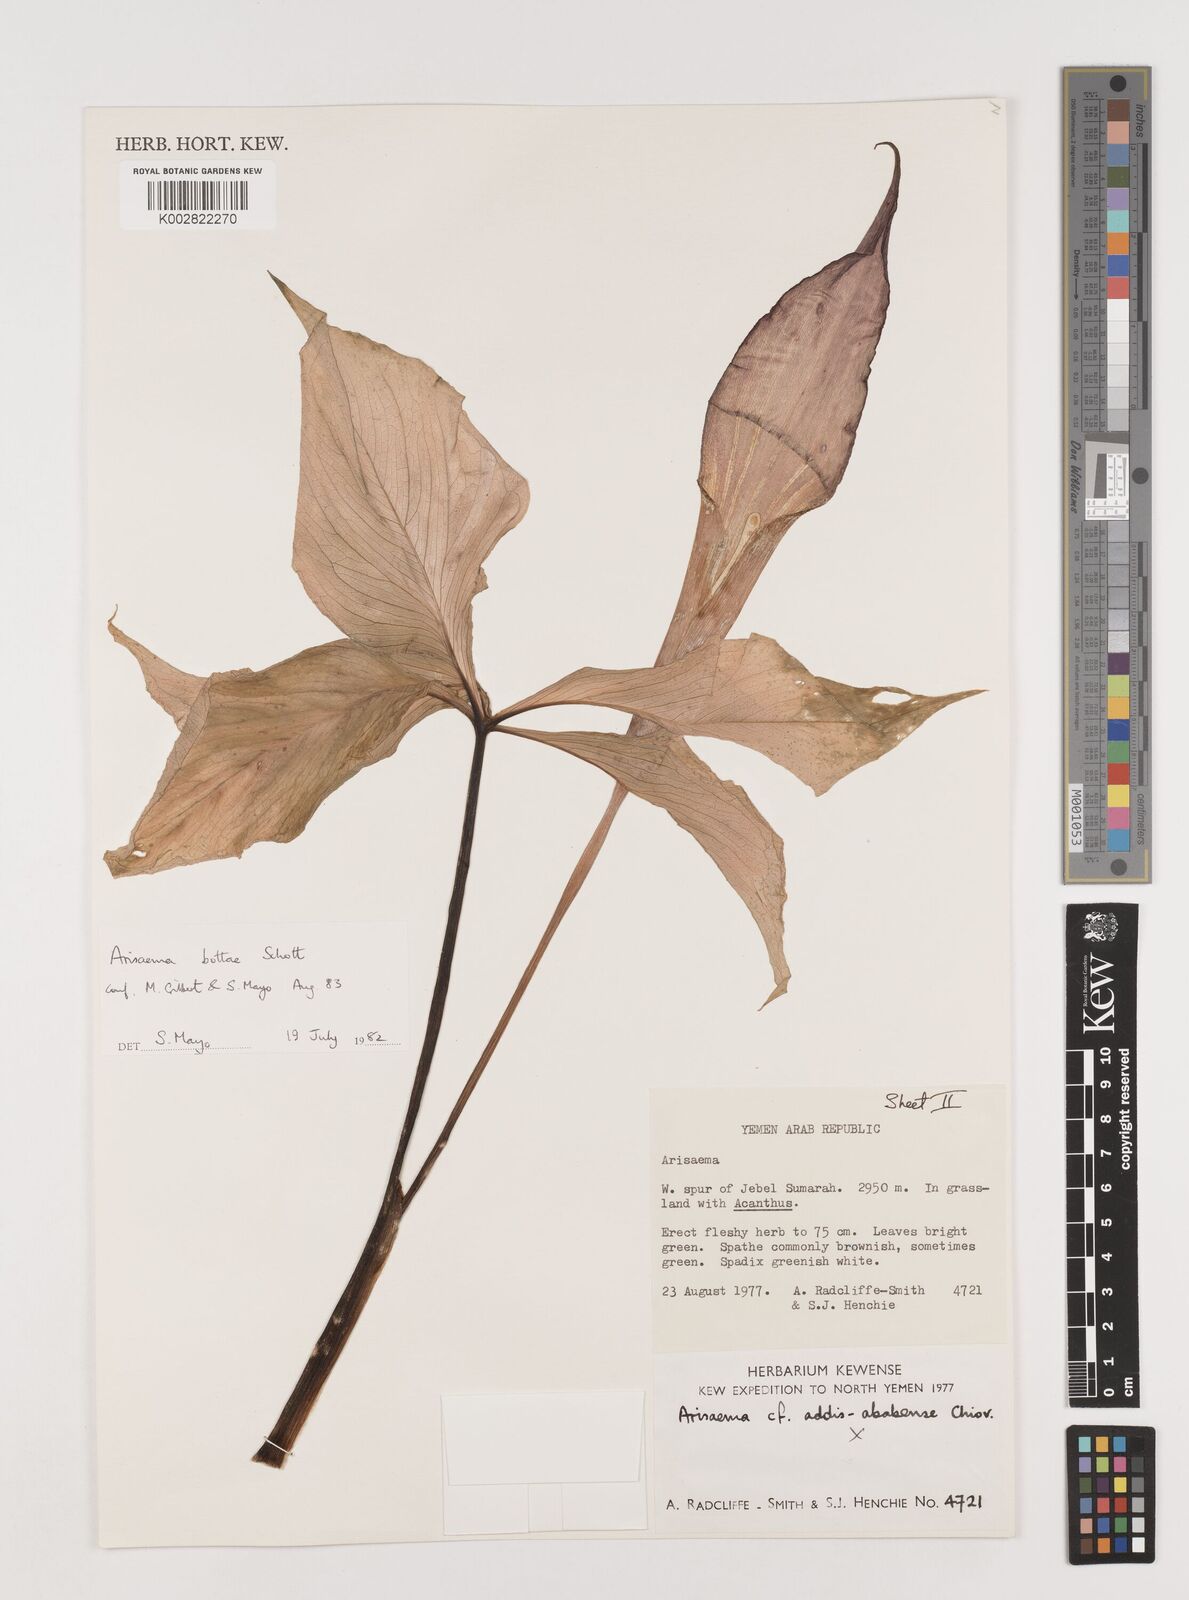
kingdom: Plantae
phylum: Tracheophyta
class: Liliopsida
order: Alismatales
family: Araceae
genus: Arisaema
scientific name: Arisaema bottae
